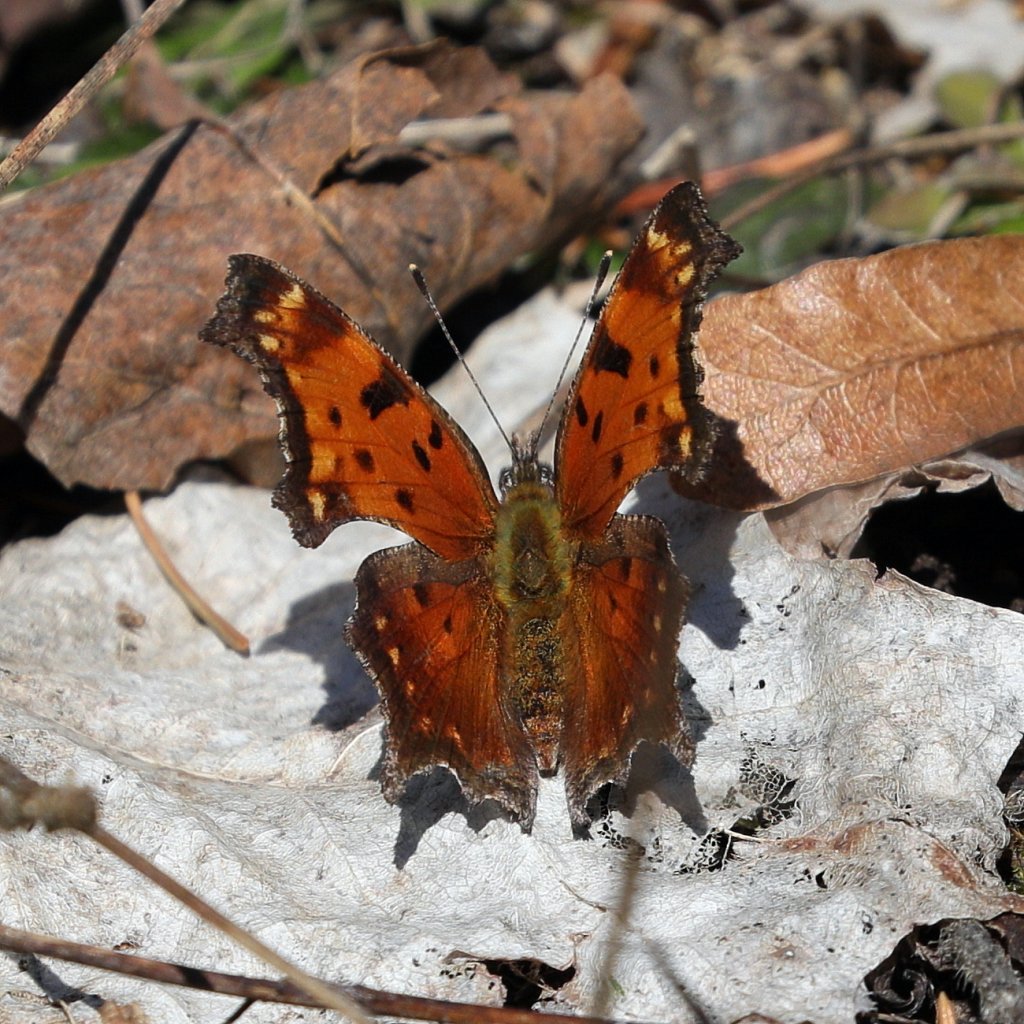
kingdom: Animalia
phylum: Arthropoda
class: Insecta
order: Lepidoptera
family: Nymphalidae
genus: Polygonia
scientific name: Polygonia progne
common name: Gray Comma
